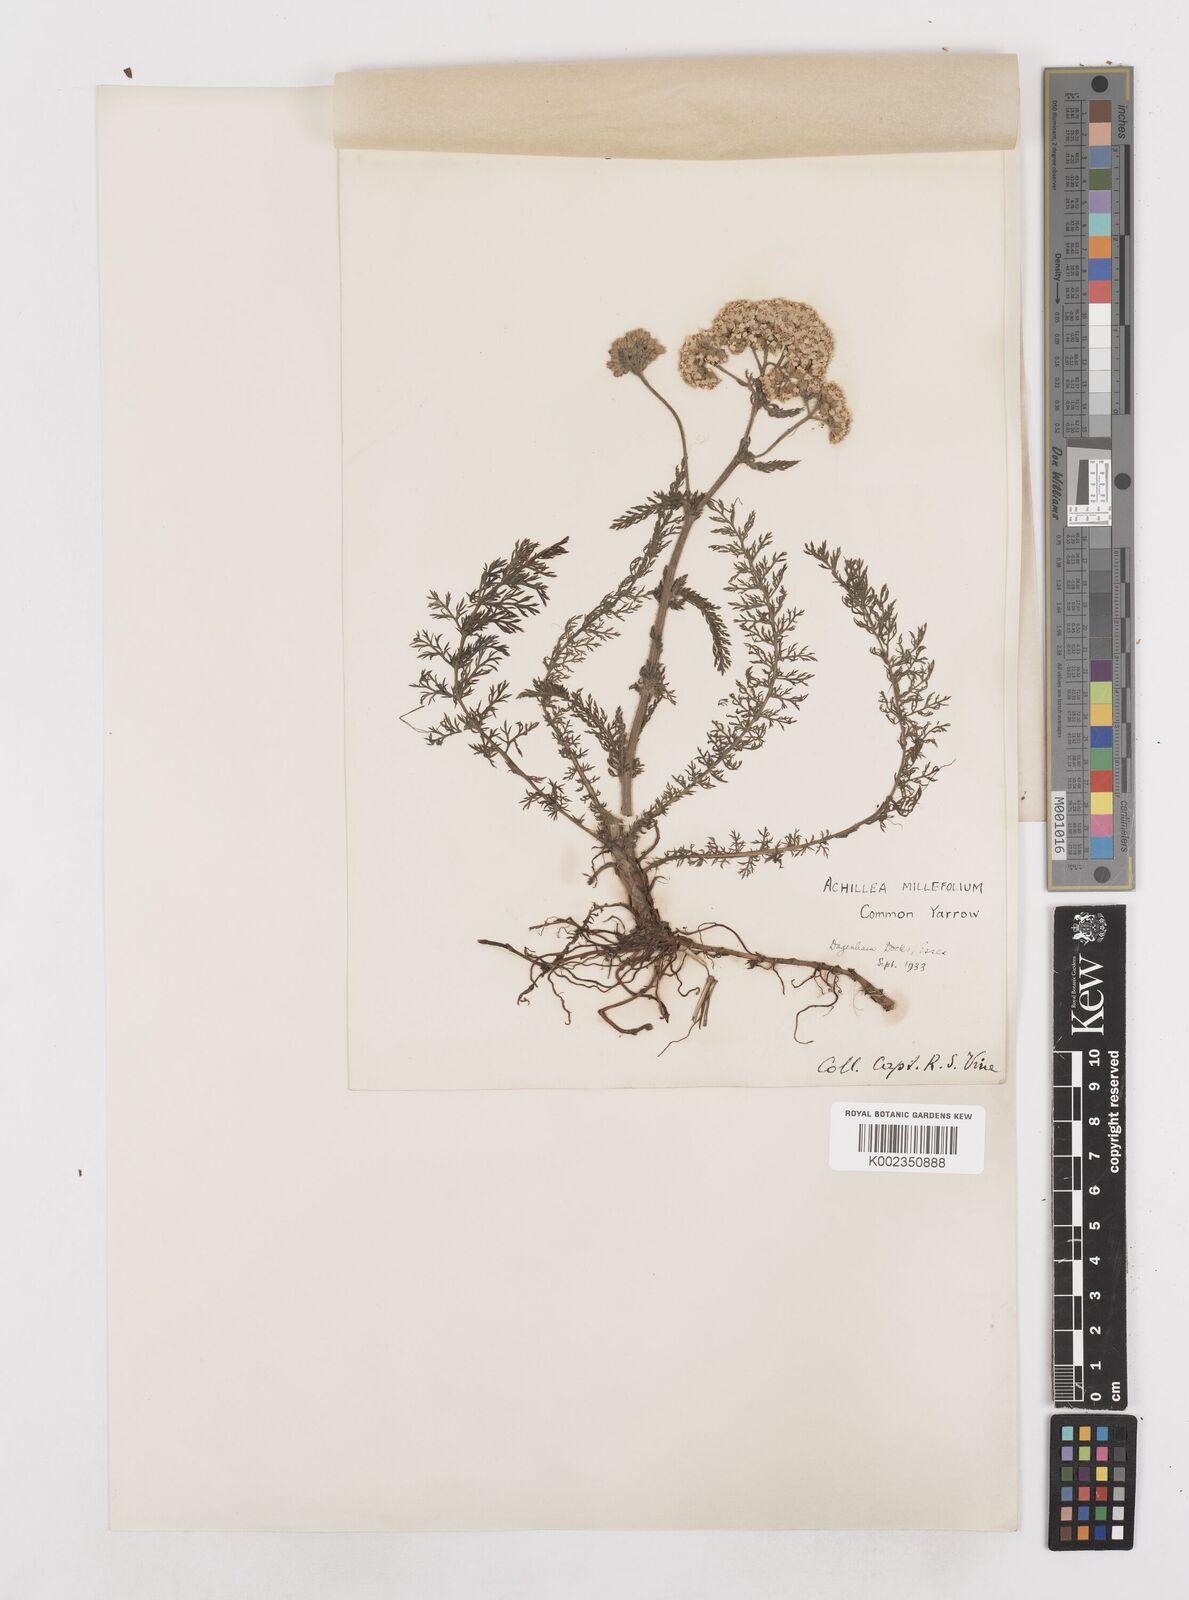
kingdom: Plantae
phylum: Tracheophyta
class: Magnoliopsida
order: Asterales
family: Asteraceae
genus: Achillea
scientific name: Achillea millefolium
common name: Yarrow
